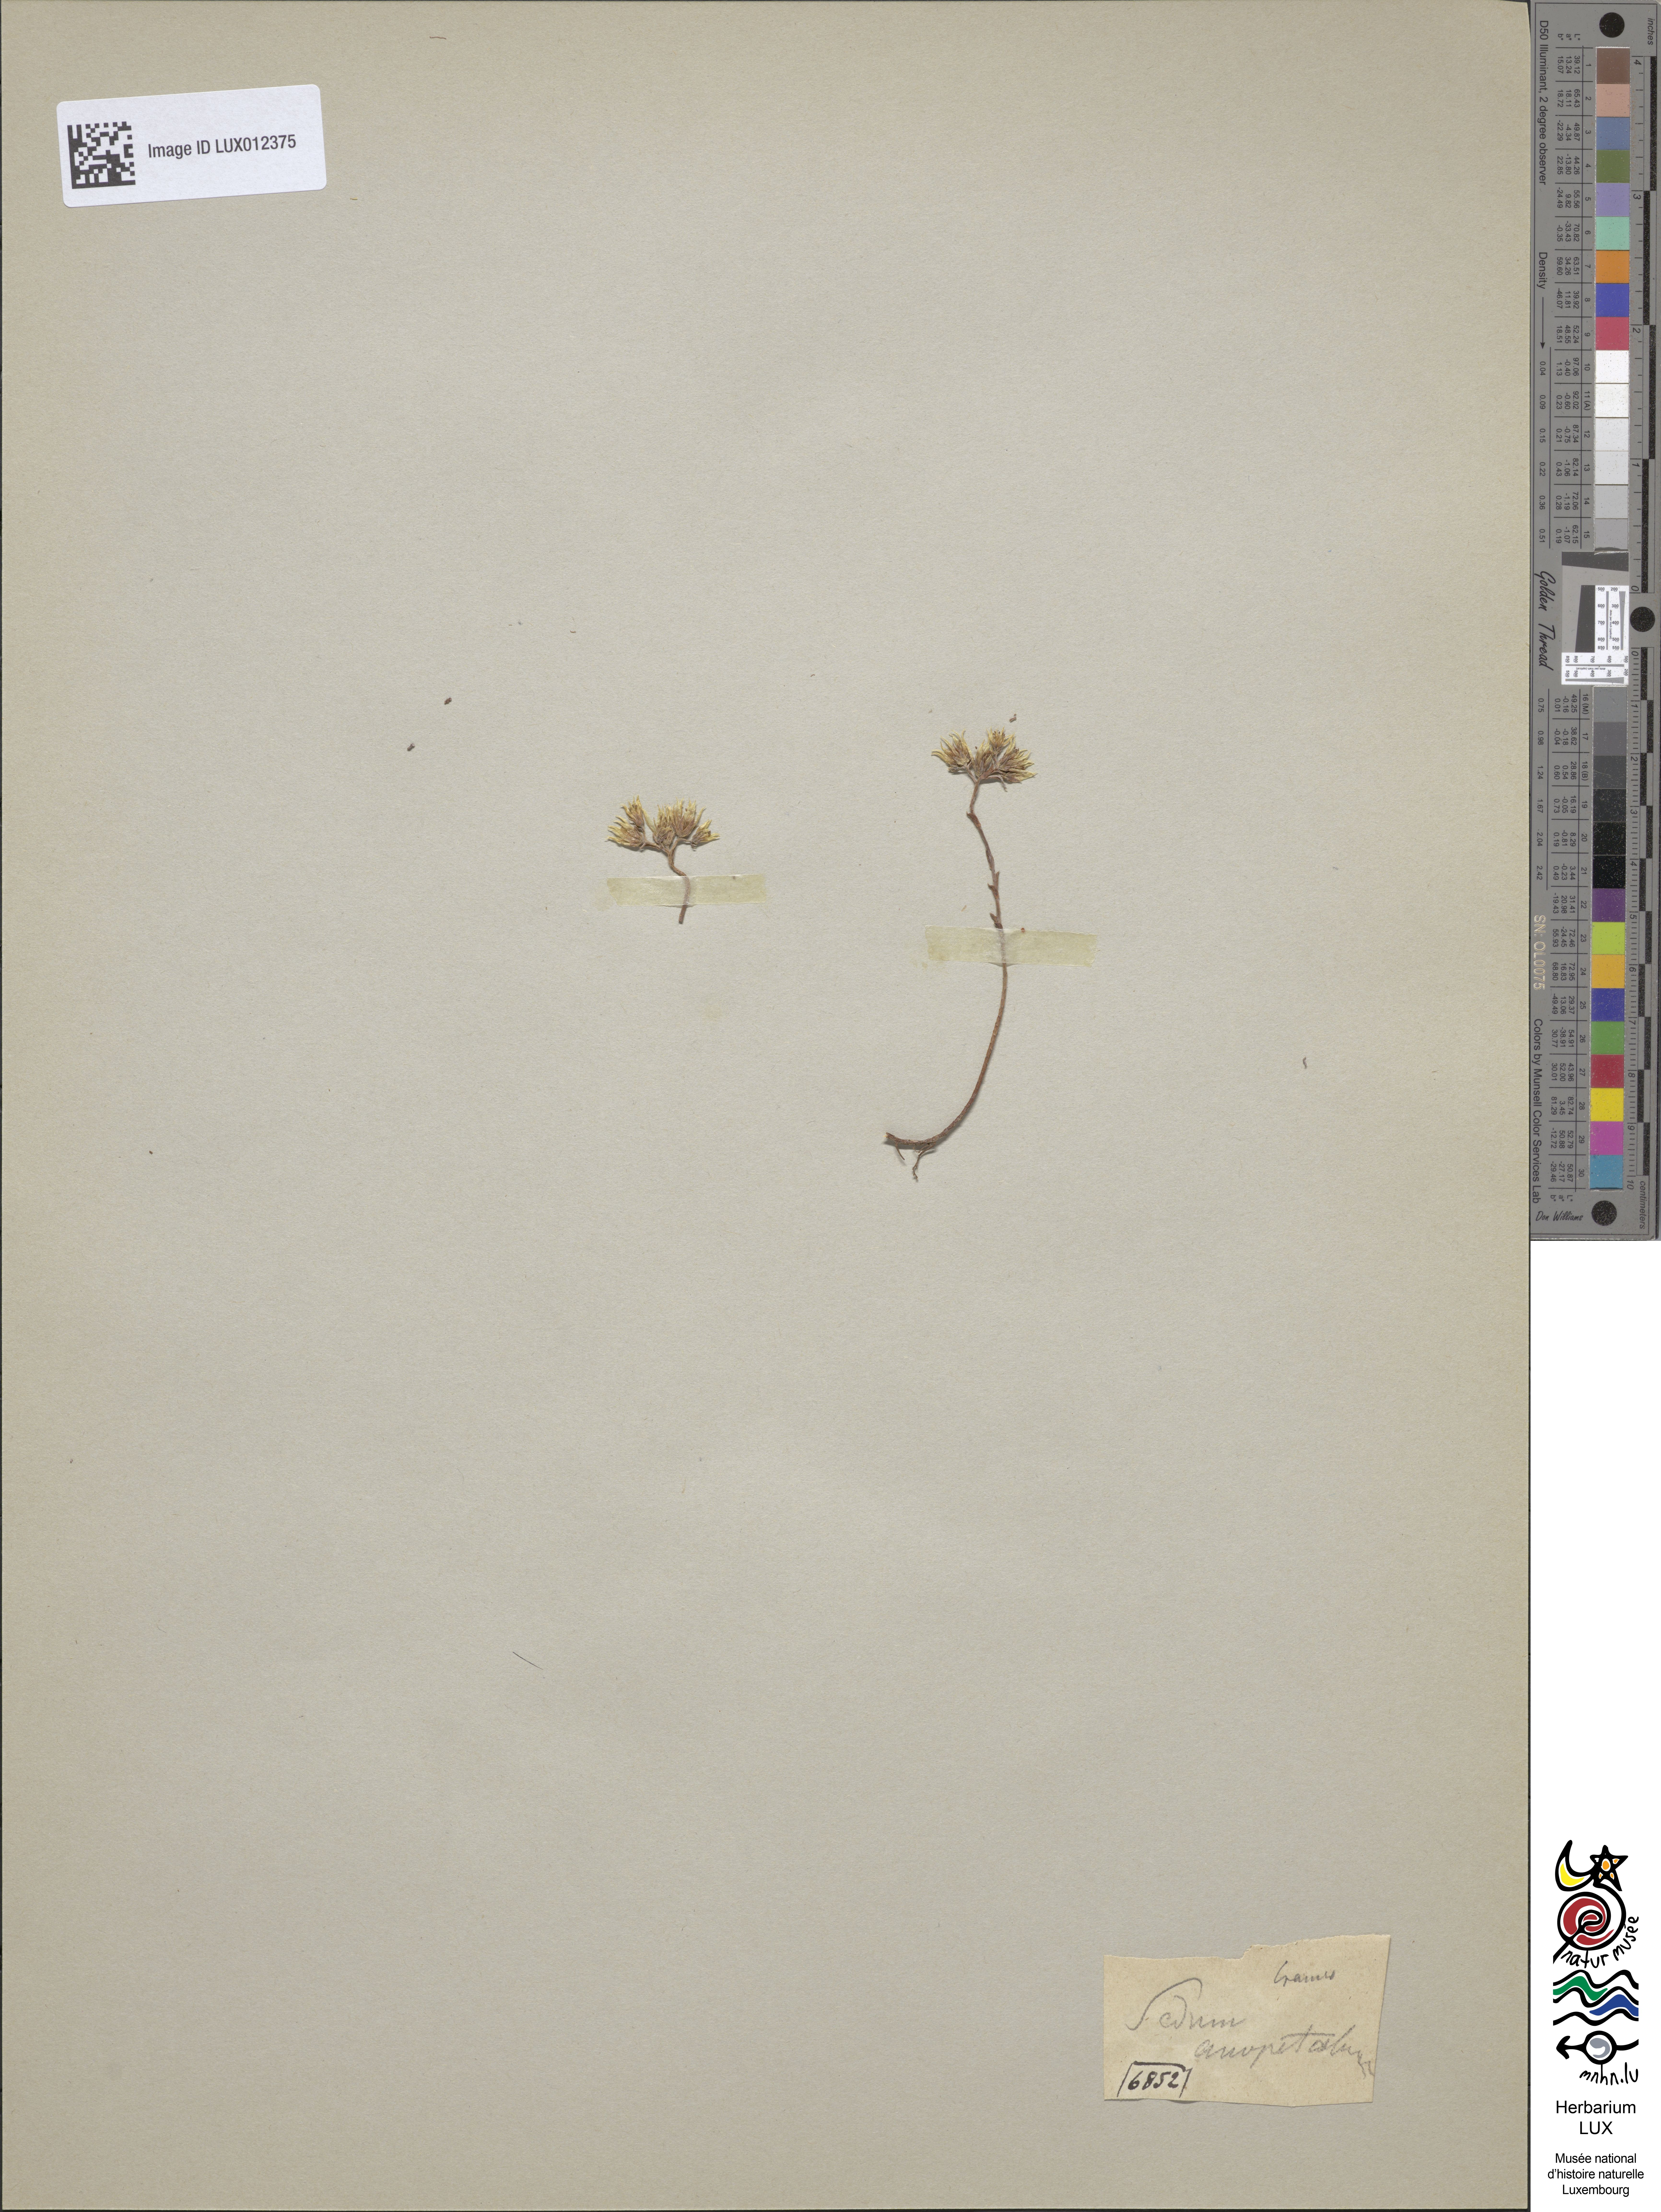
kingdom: Plantae
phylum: Tracheophyta
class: Magnoliopsida
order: Saxifragales
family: Crassulaceae
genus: Petrosedum
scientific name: Petrosedum ochroleucum
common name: European stonecrop
